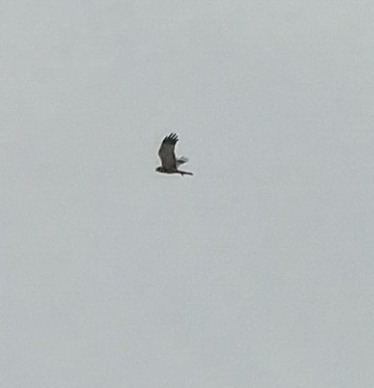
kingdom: Animalia
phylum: Chordata
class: Aves
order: Accipitriformes
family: Accipitridae
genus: Circus
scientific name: Circus aeruginosus
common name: Rørhøg
